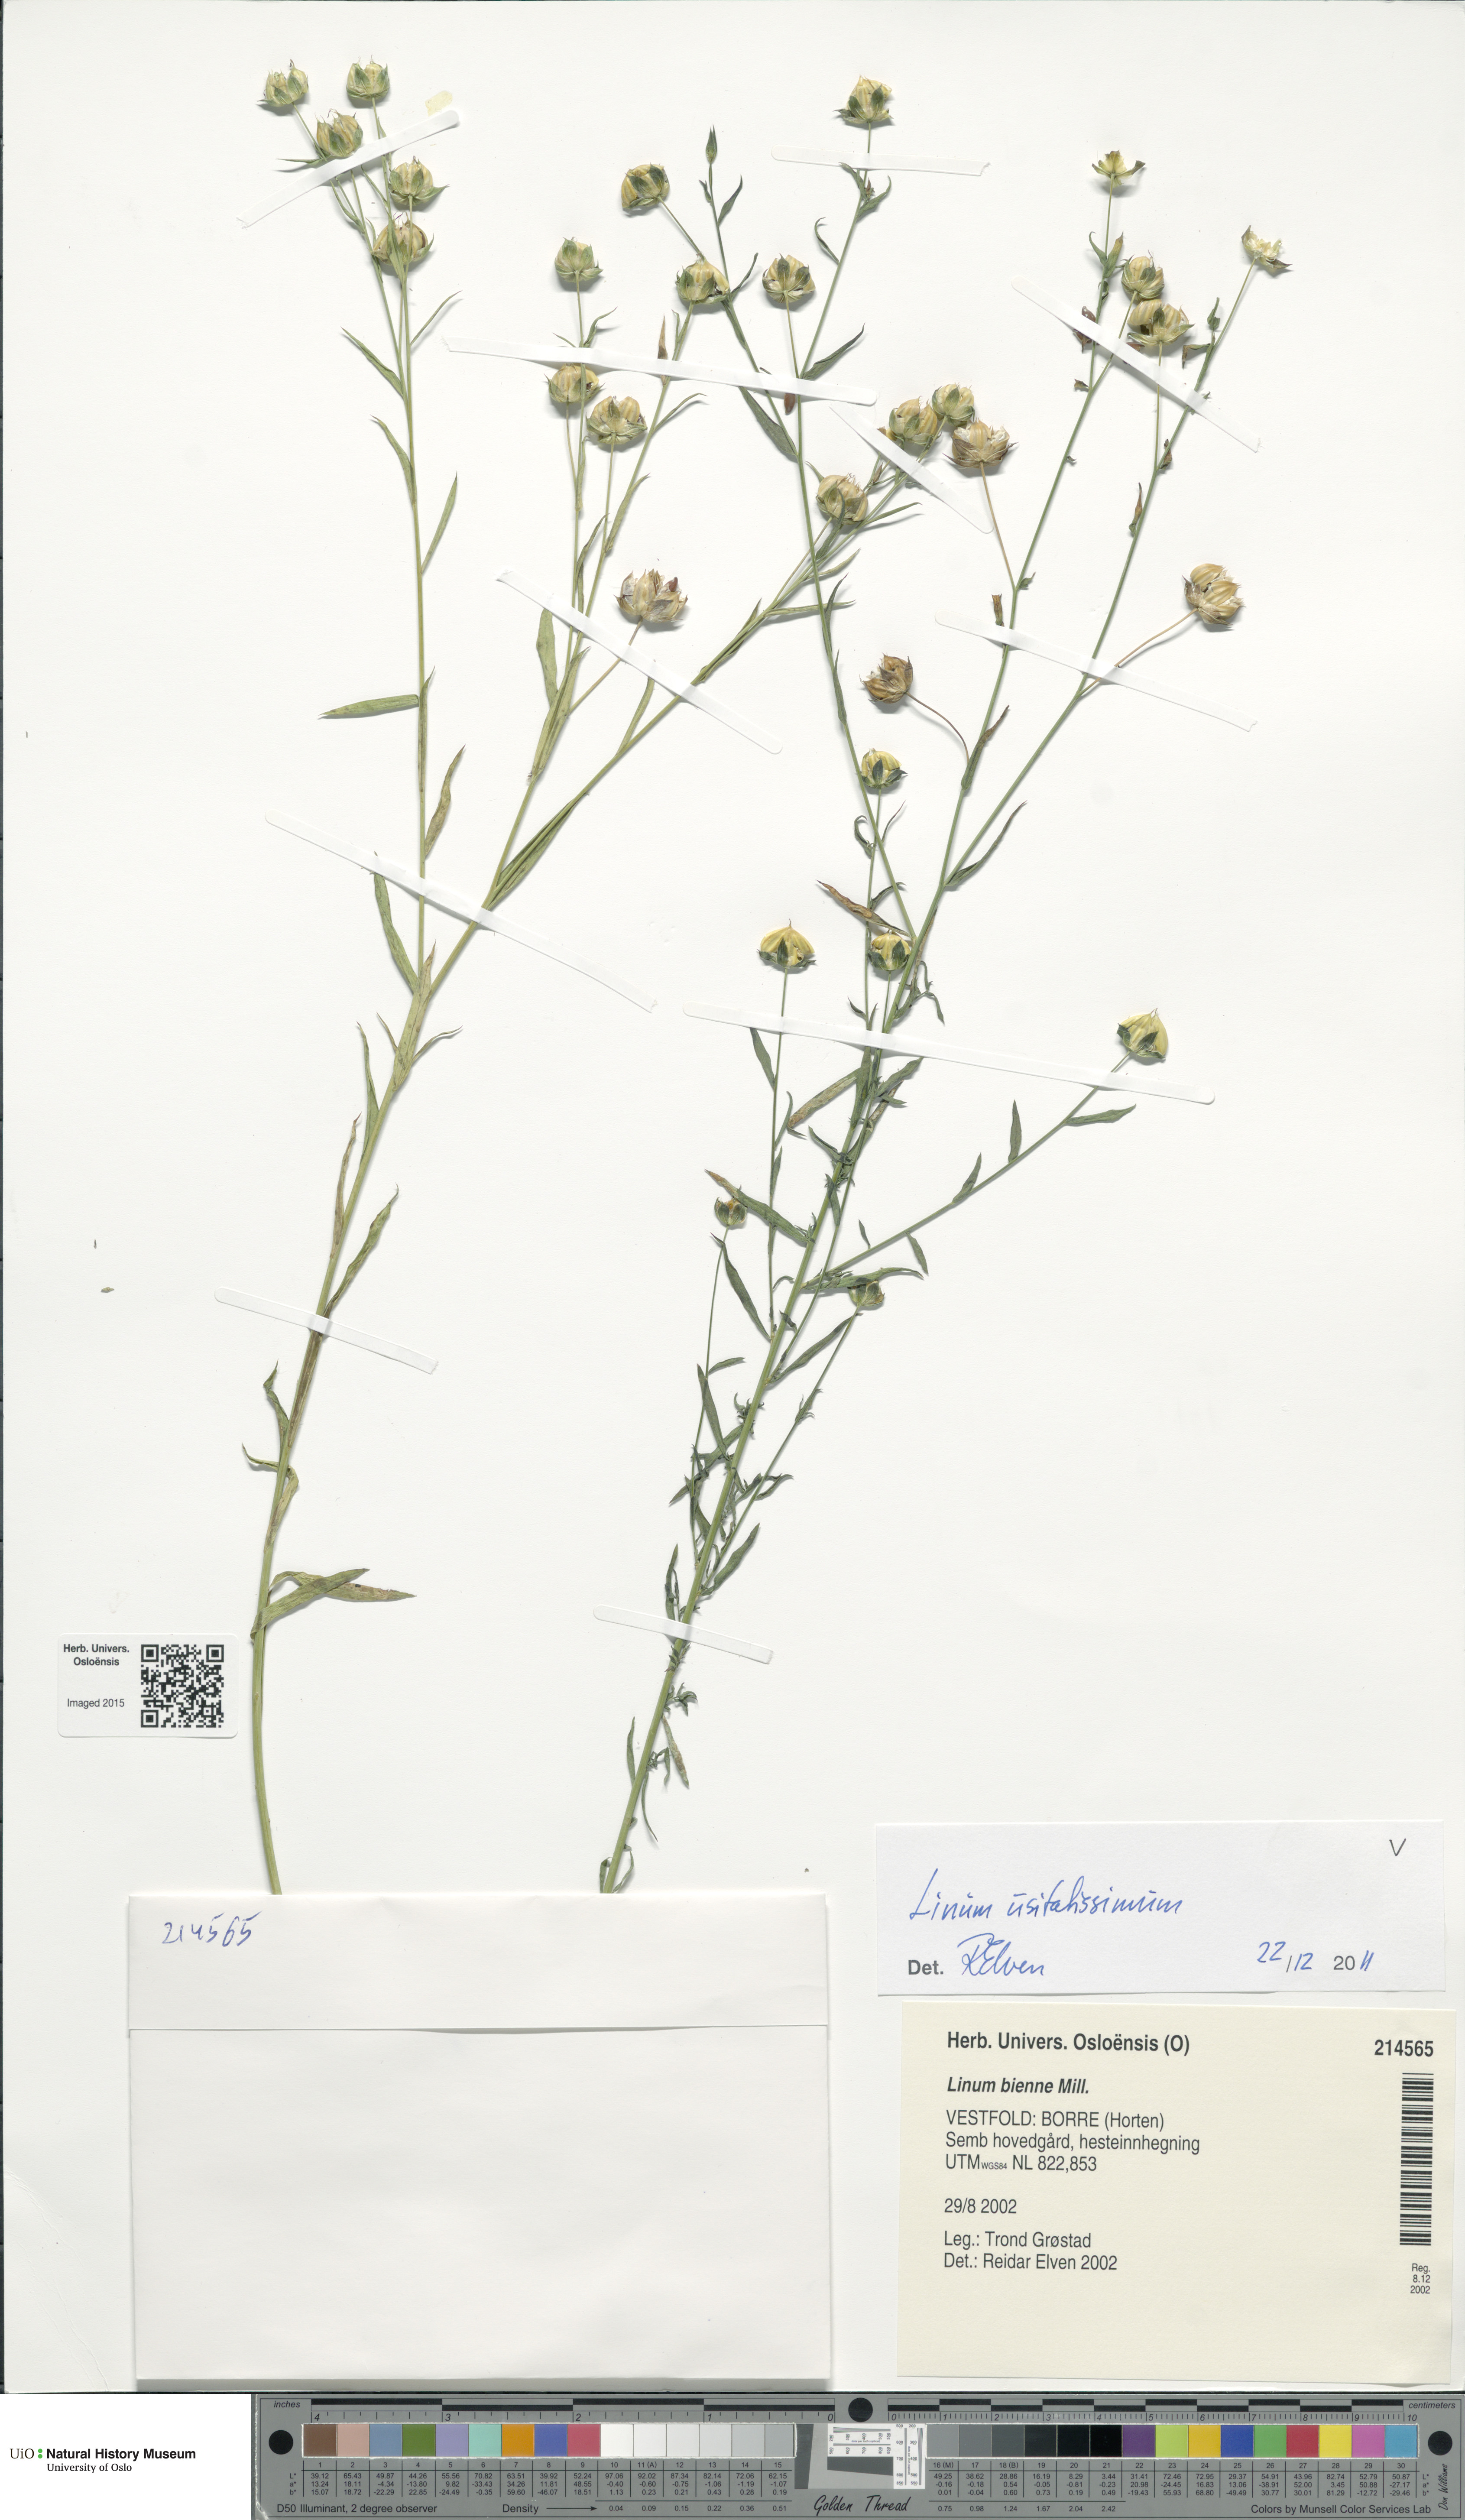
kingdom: Plantae
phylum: Tracheophyta
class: Magnoliopsida
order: Malpighiales
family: Linaceae
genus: Linum
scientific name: Linum usitatissimum
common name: Flax
